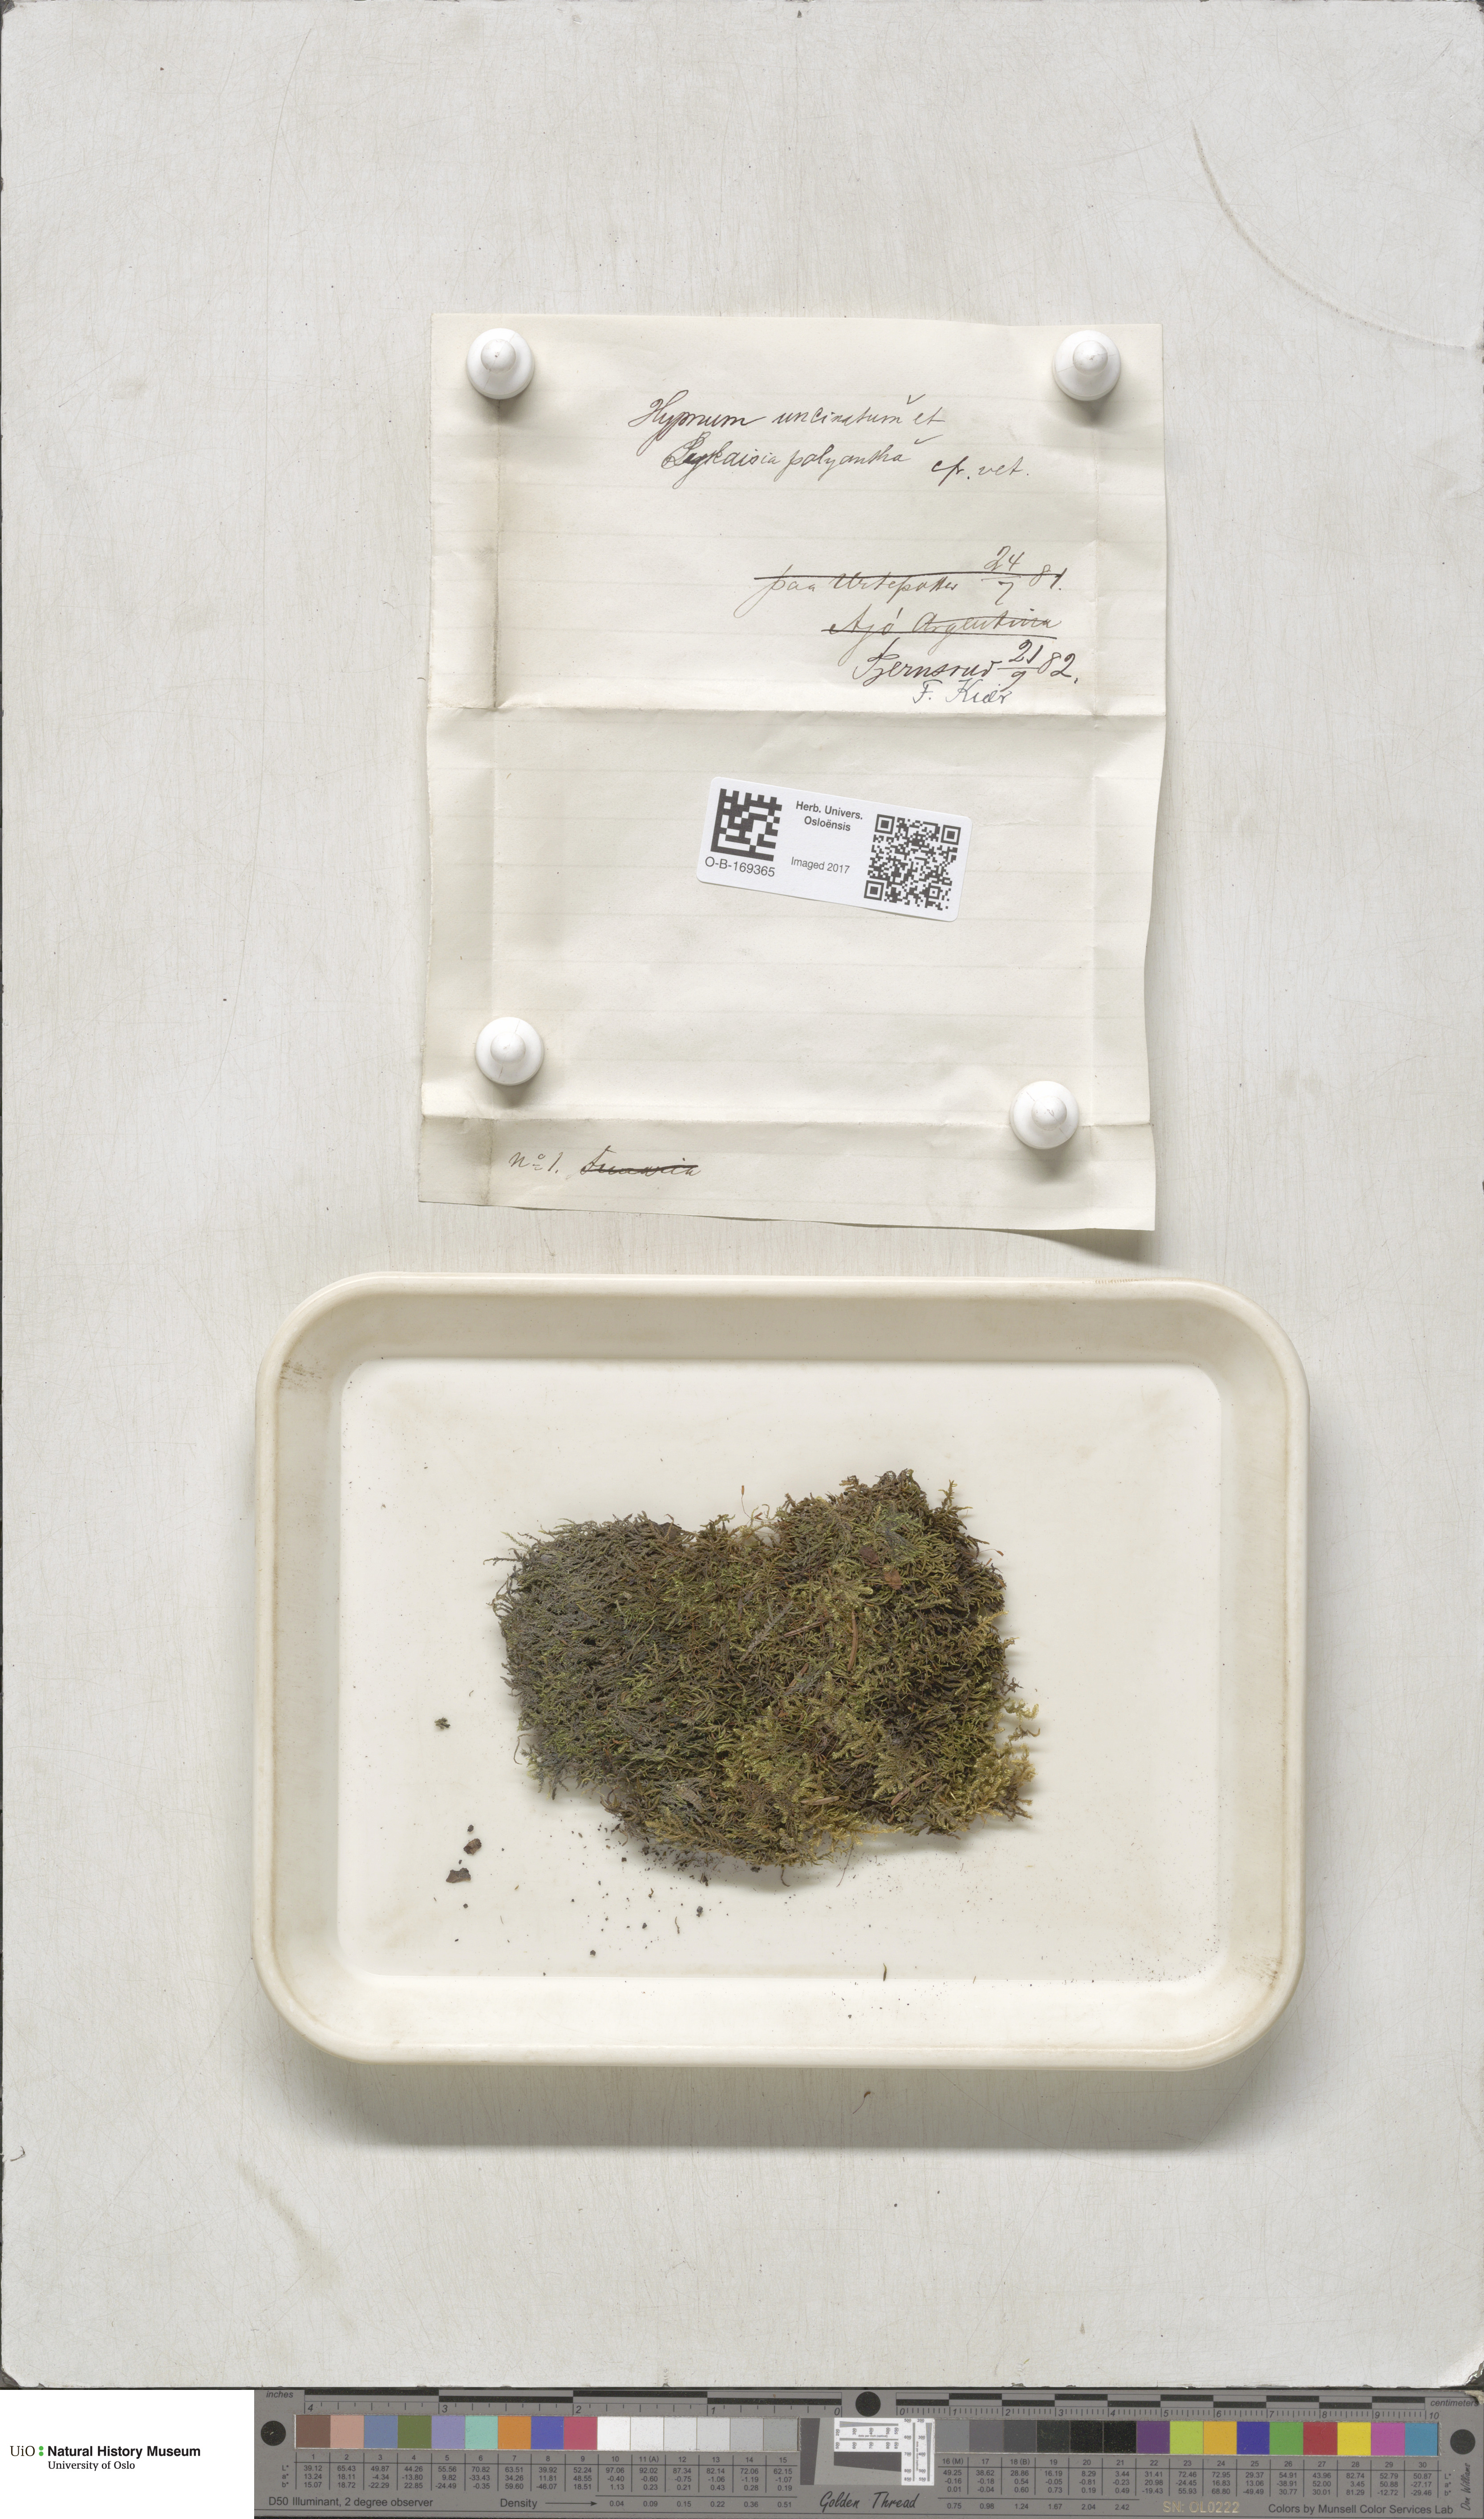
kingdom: Plantae
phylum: Bryophyta
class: Bryopsida
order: Hypnales
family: Pylaisiaceae
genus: Pylaisia
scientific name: Pylaisia polyantha
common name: Many-flowered leskea
